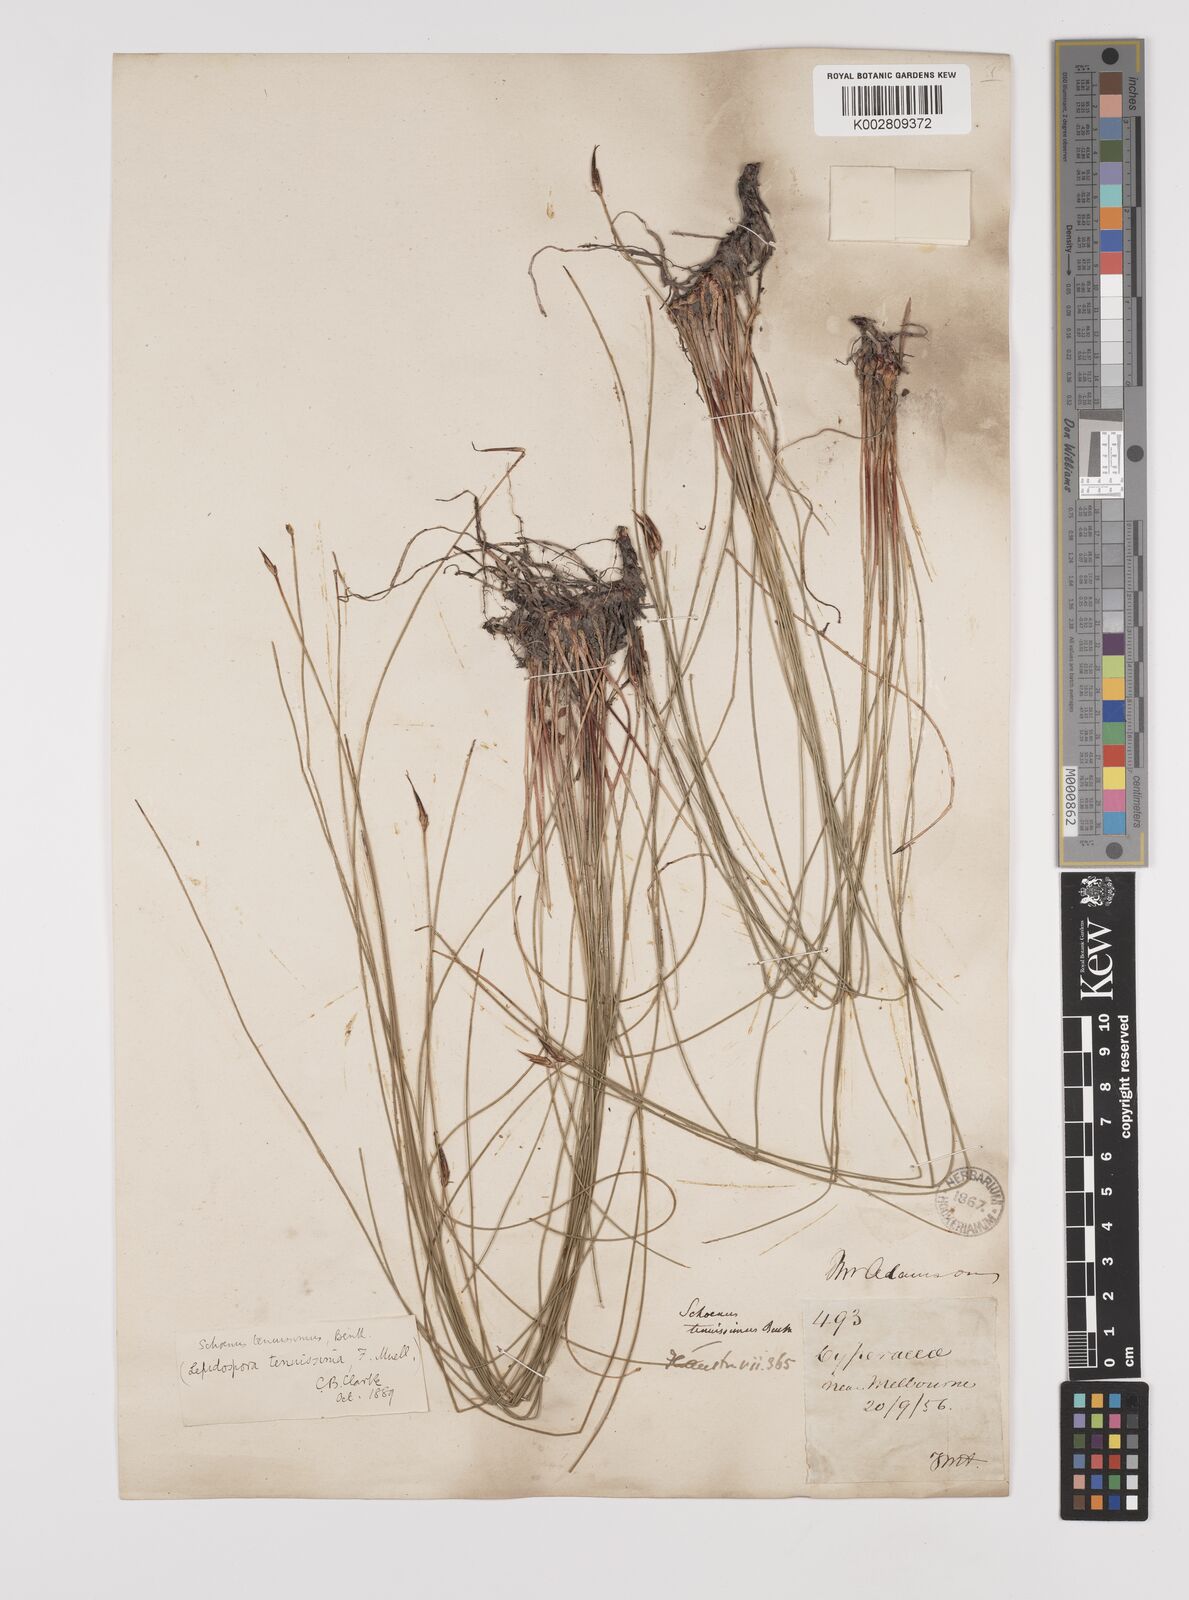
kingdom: Plantae
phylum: Tracheophyta
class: Liliopsida
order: Poales
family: Cyperaceae
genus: Schoenus
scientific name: Schoenus tenuissimus
